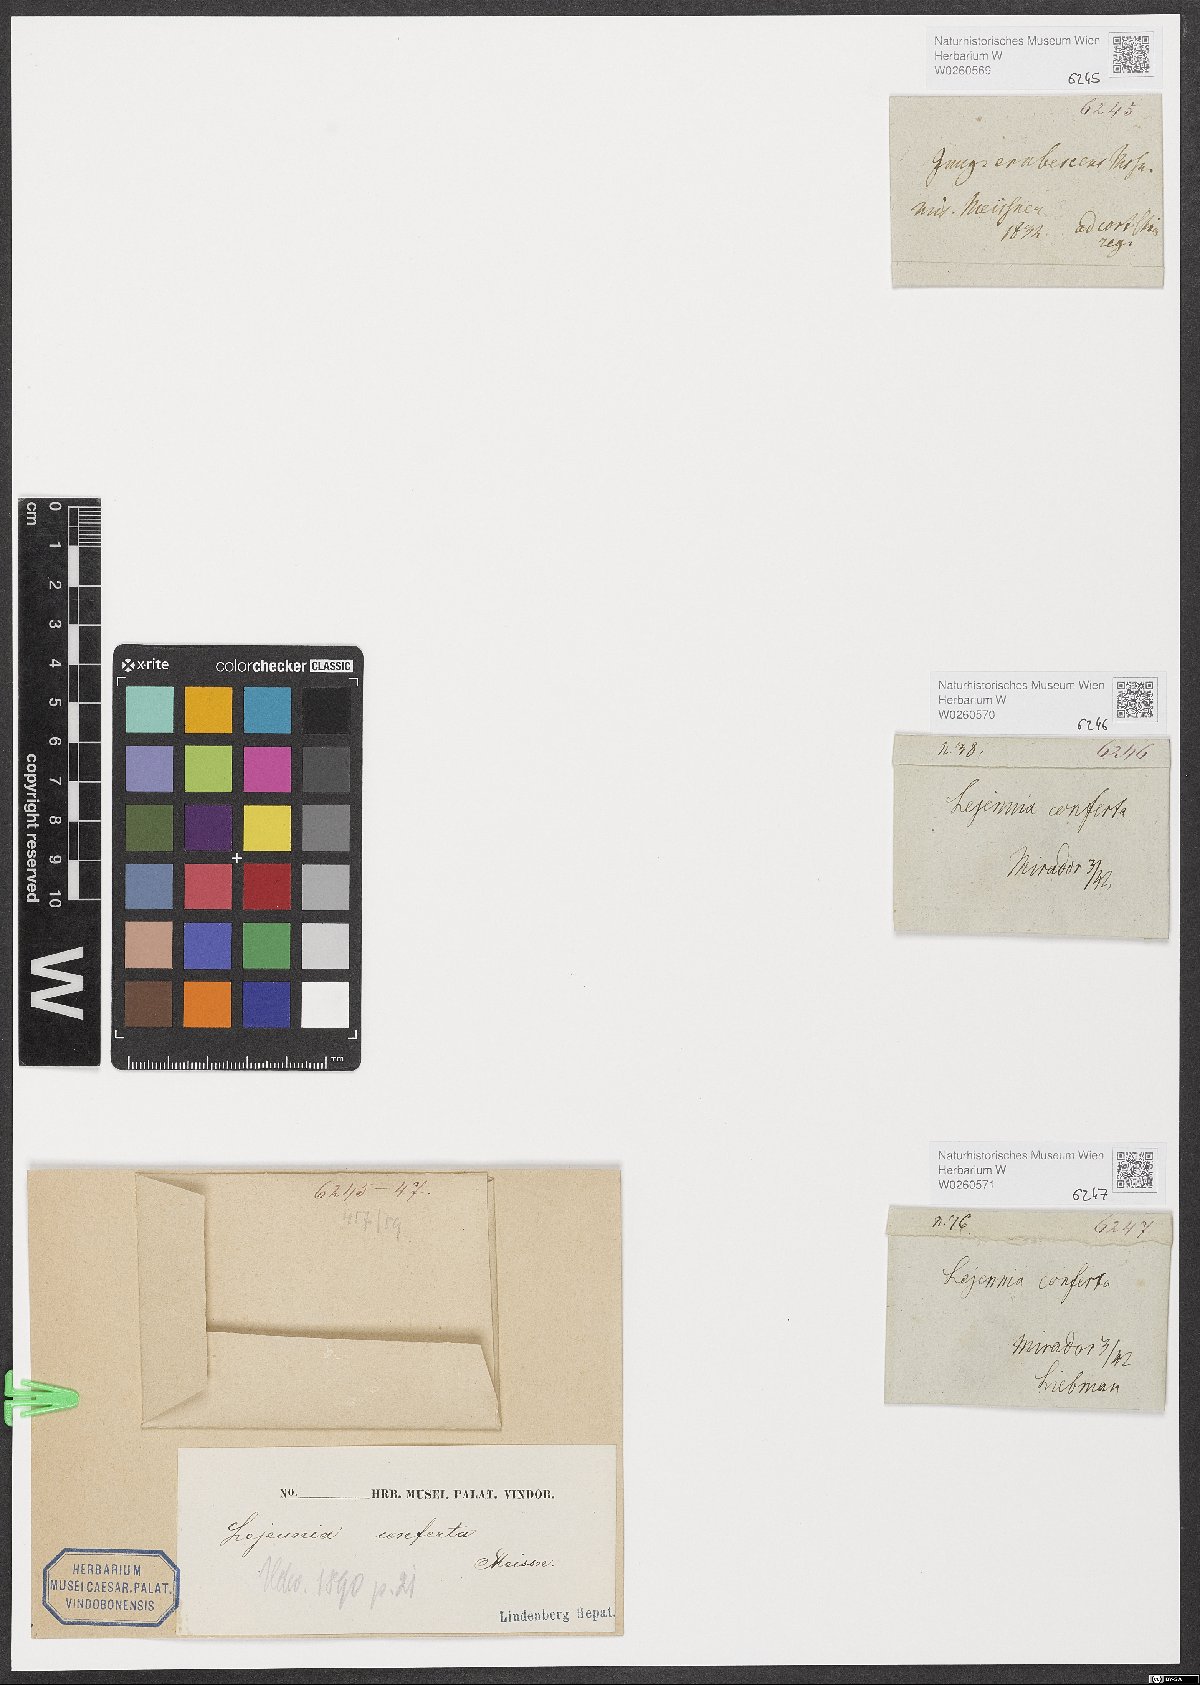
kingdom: Plantae
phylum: Marchantiophyta
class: Jungermanniopsida
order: Porellales
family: Lejeuneaceae
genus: Anoplolejeunea
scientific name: Anoplolejeunea conferta
